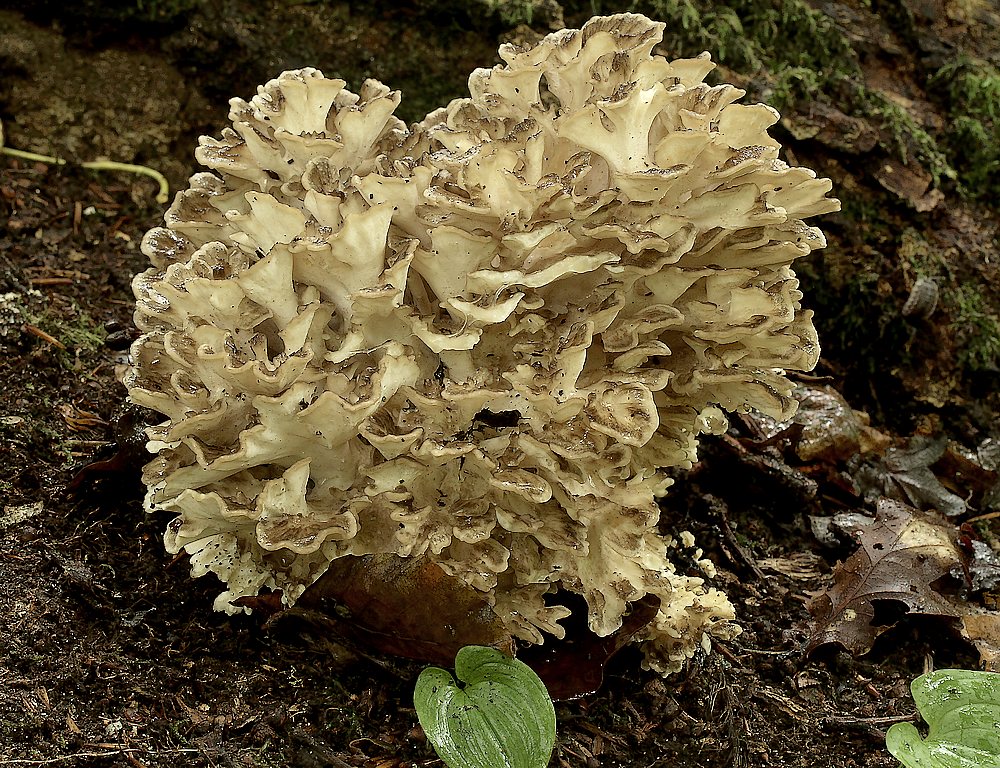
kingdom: Fungi
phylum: Basidiomycota
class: Agaricomycetes
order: Polyporales
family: Grifolaceae
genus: Grifola
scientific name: Grifola frondosa
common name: tueporesvamp
